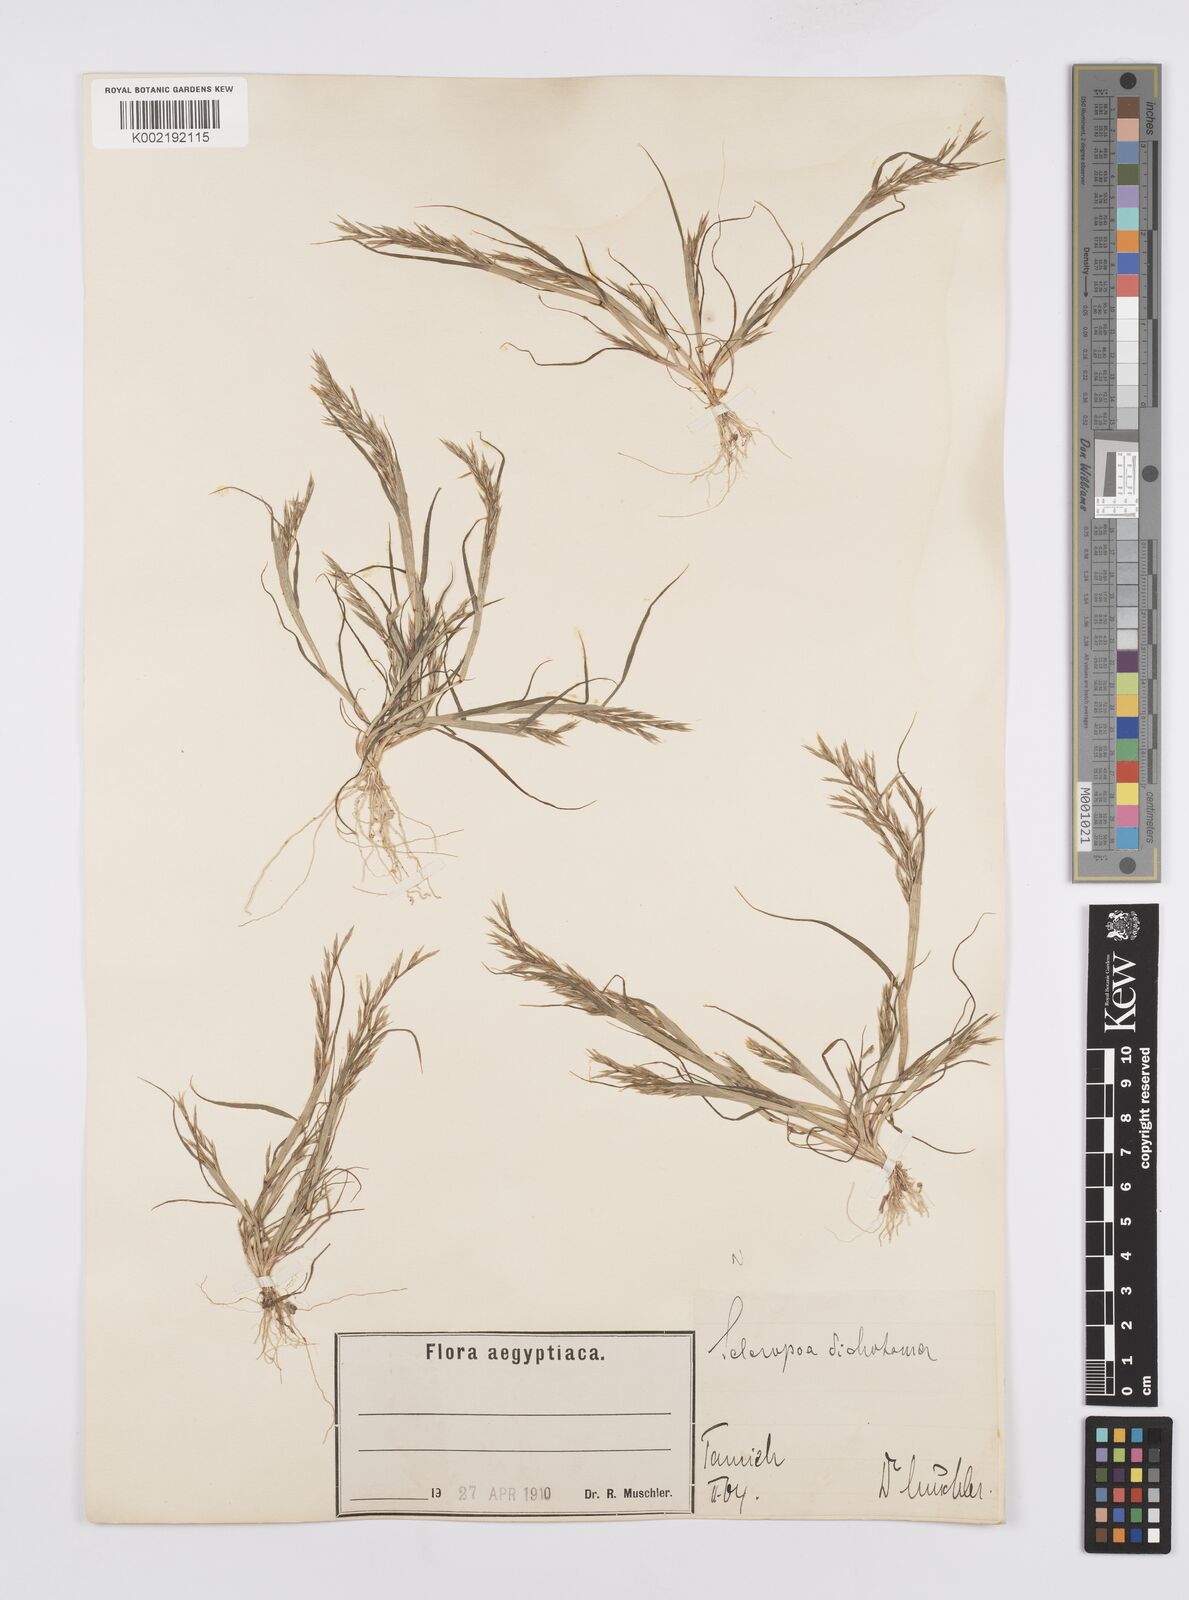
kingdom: Plantae
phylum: Tracheophyta
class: Liliopsida
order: Poales
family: Poaceae
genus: Cutandia
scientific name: Cutandia memphitica
